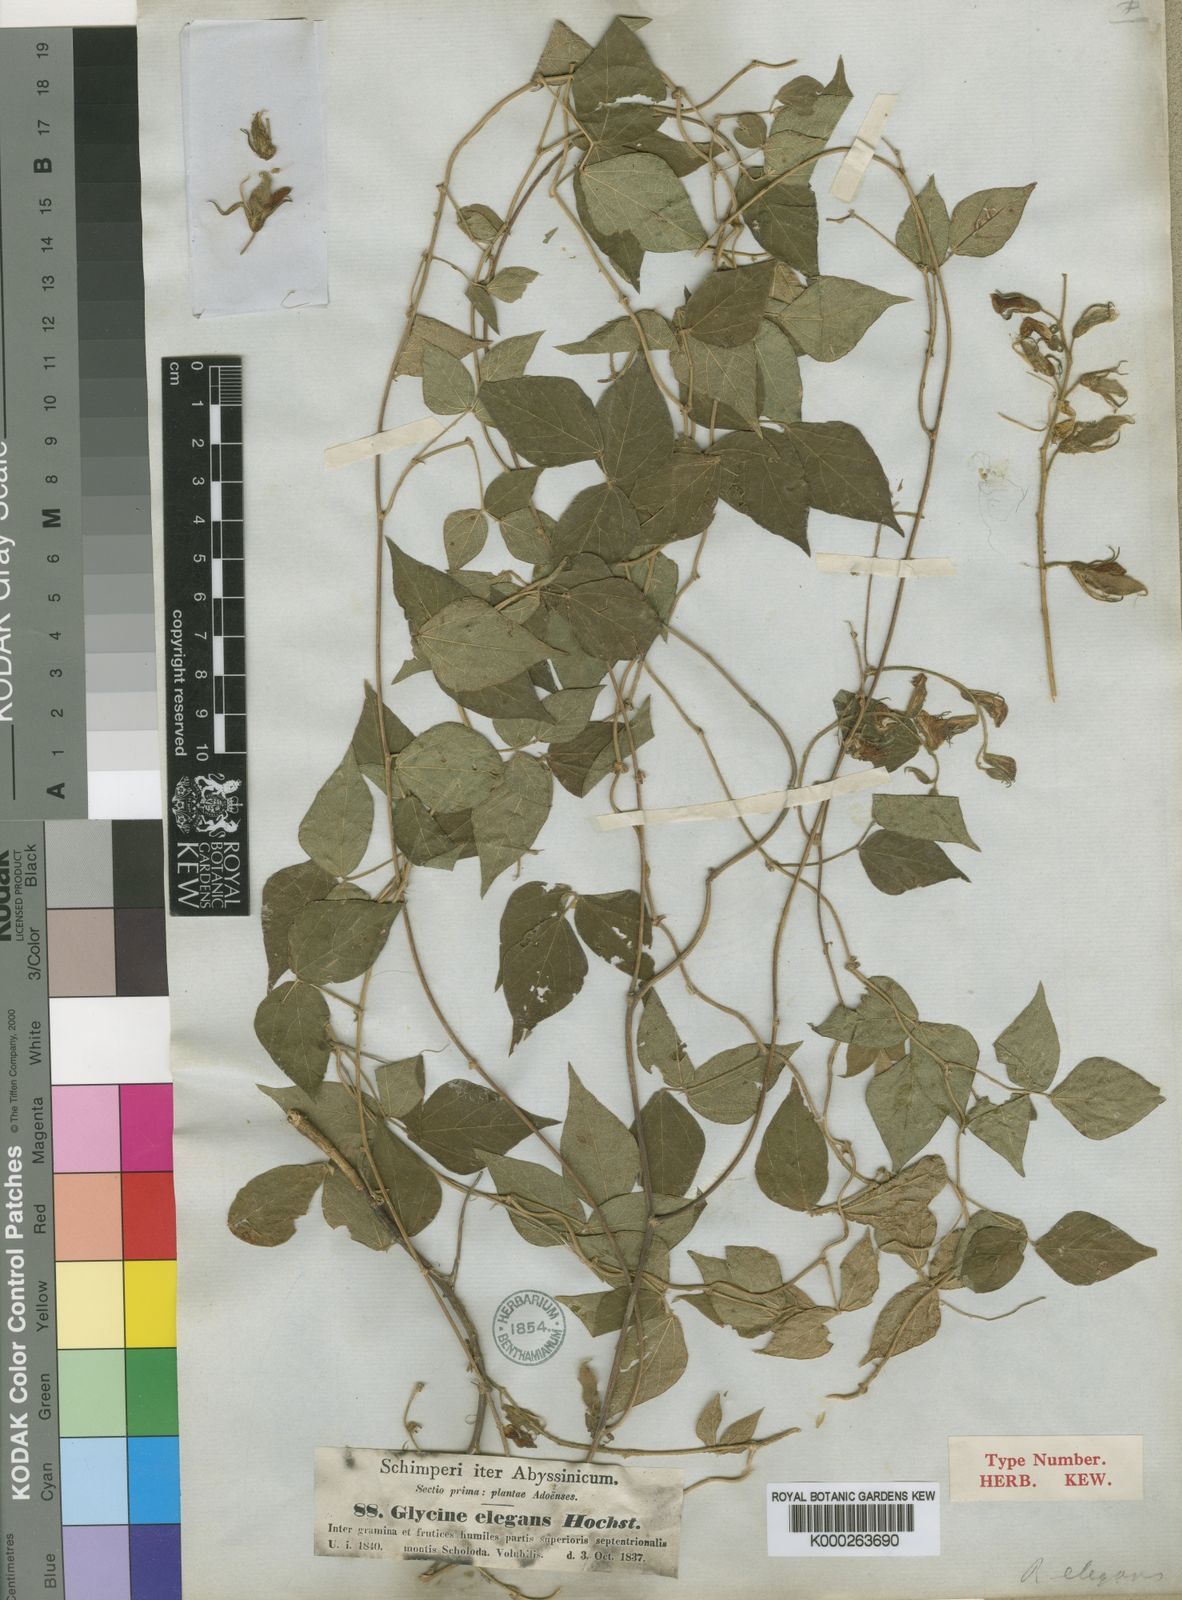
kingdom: Plantae
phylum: Tracheophyta
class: Magnoliopsida
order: Fabales
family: Fabaceae
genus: Rhynchosia
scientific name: Rhynchosia elegans
